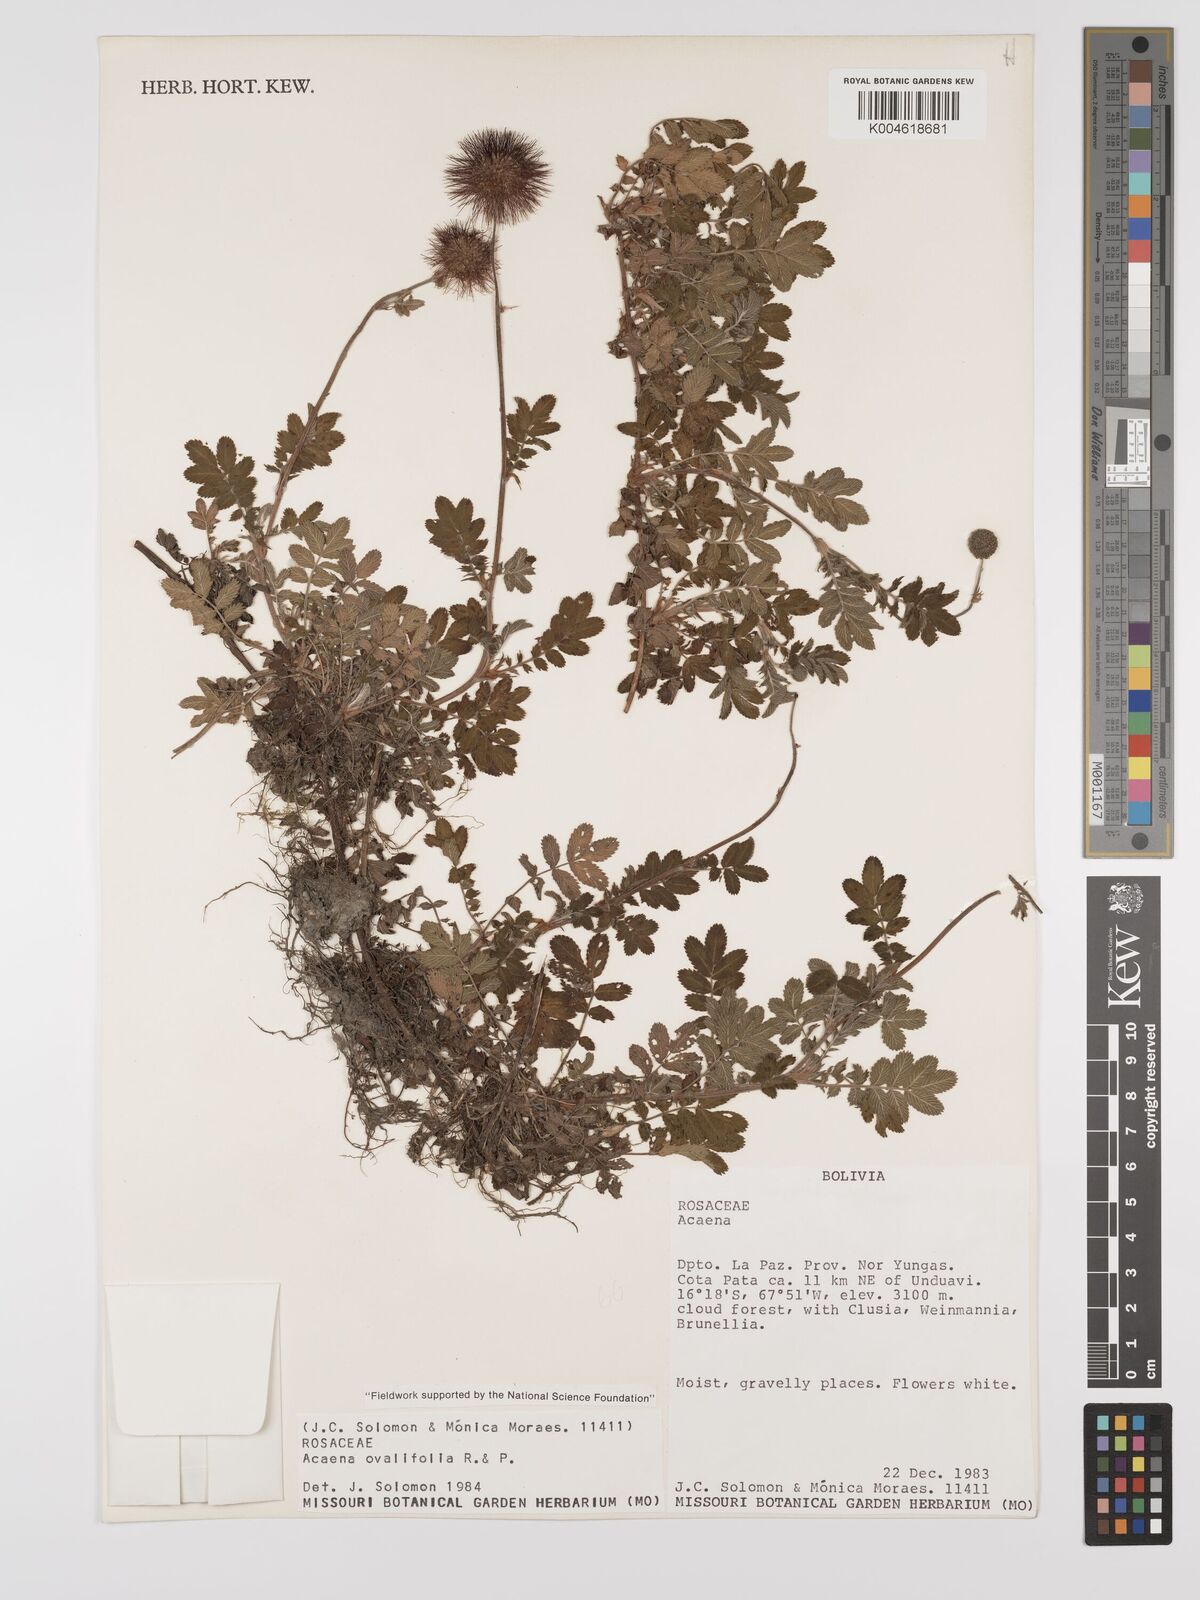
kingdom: Plantae
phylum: Tracheophyta
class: Magnoliopsida
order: Rosales
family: Rosaceae
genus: Acaena
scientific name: Acaena ovalifolia
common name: Two-spined acaena
